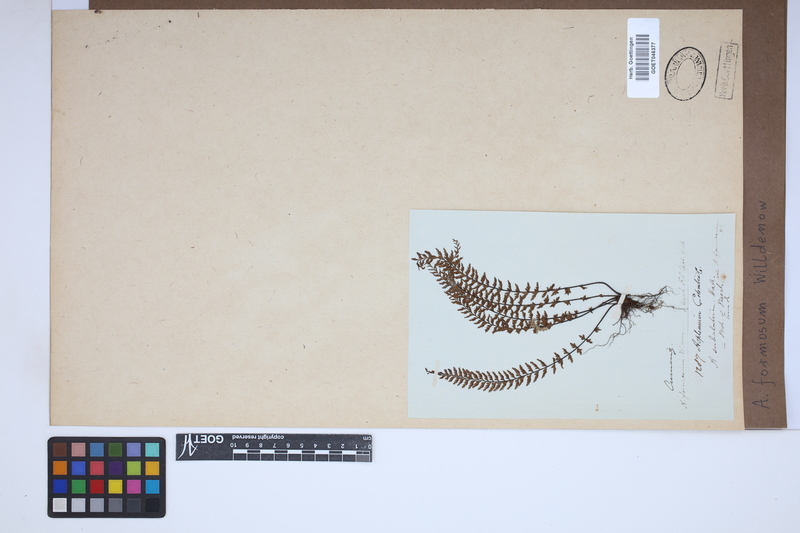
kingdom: Plantae
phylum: Tracheophyta
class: Polypodiopsida
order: Polypodiales
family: Aspleniaceae
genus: Asplenium
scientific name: Asplenium formosum
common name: Showy spleenwort
